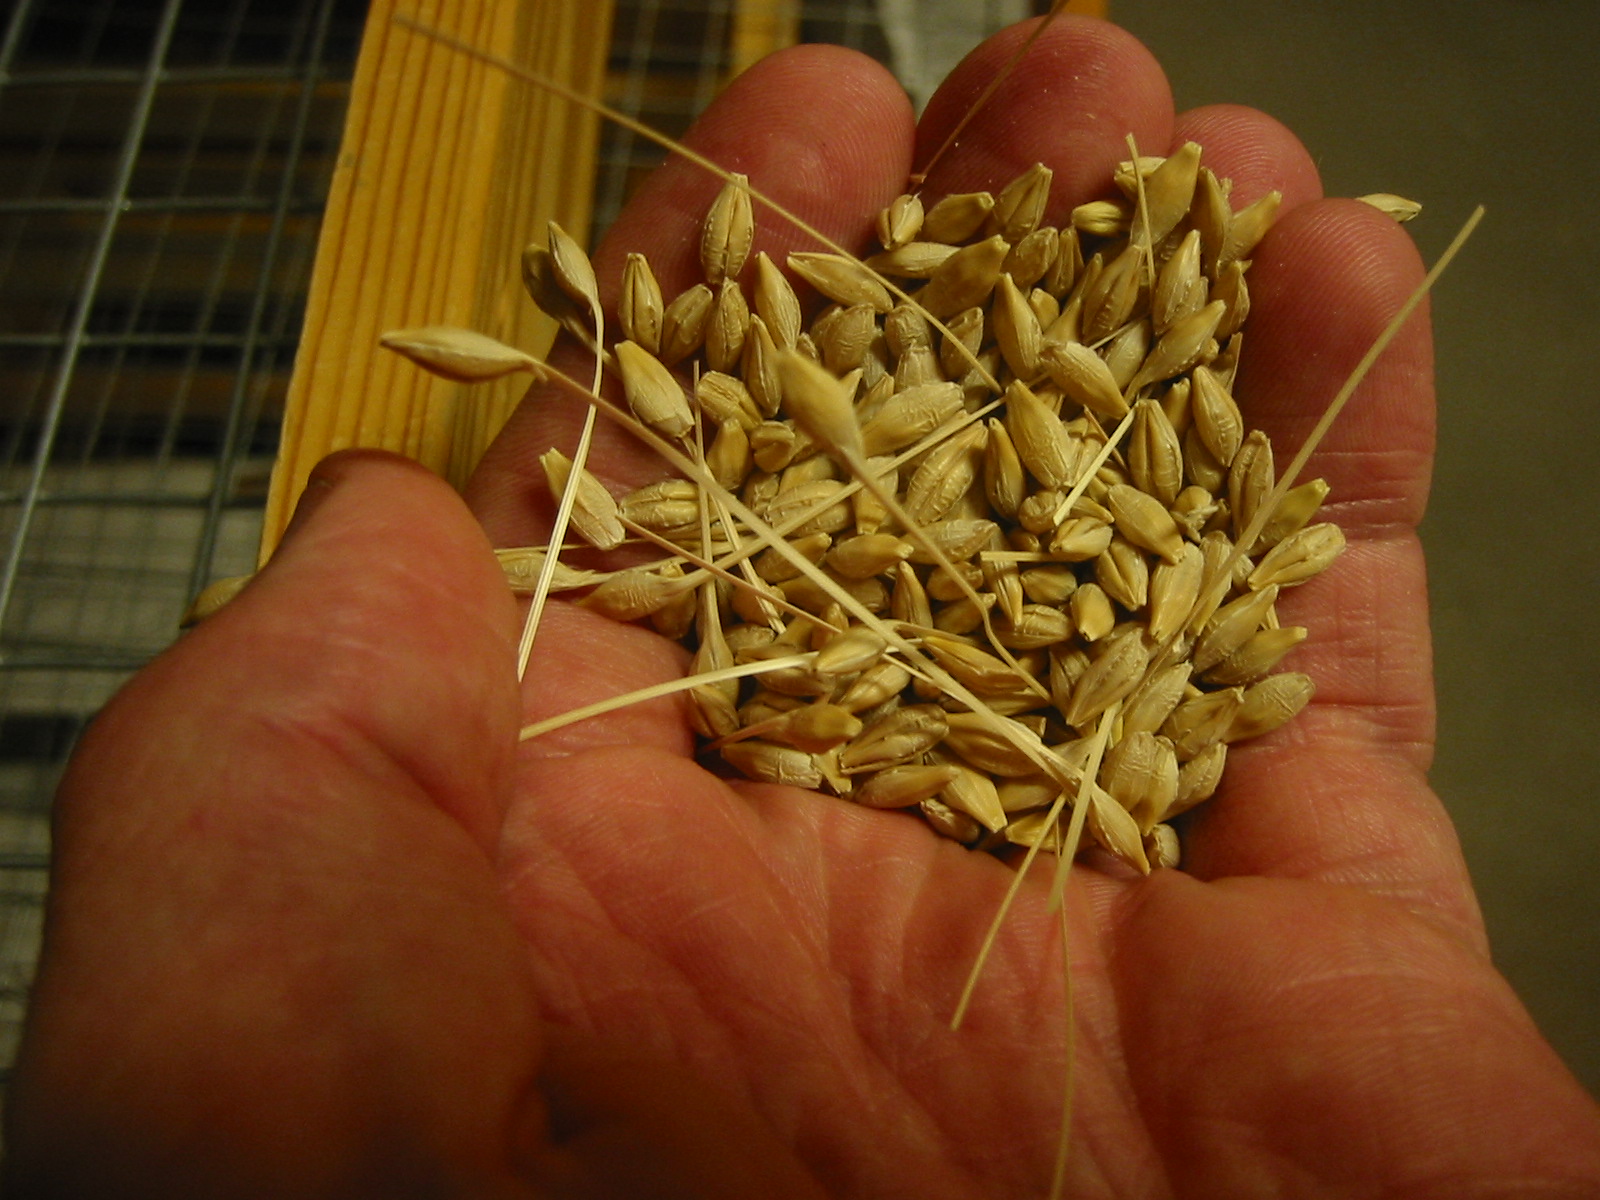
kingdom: Plantae
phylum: Tracheophyta
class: Liliopsida
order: Poales
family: Poaceae
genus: Hordeum
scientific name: Hordeum vulgare
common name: Common barley
